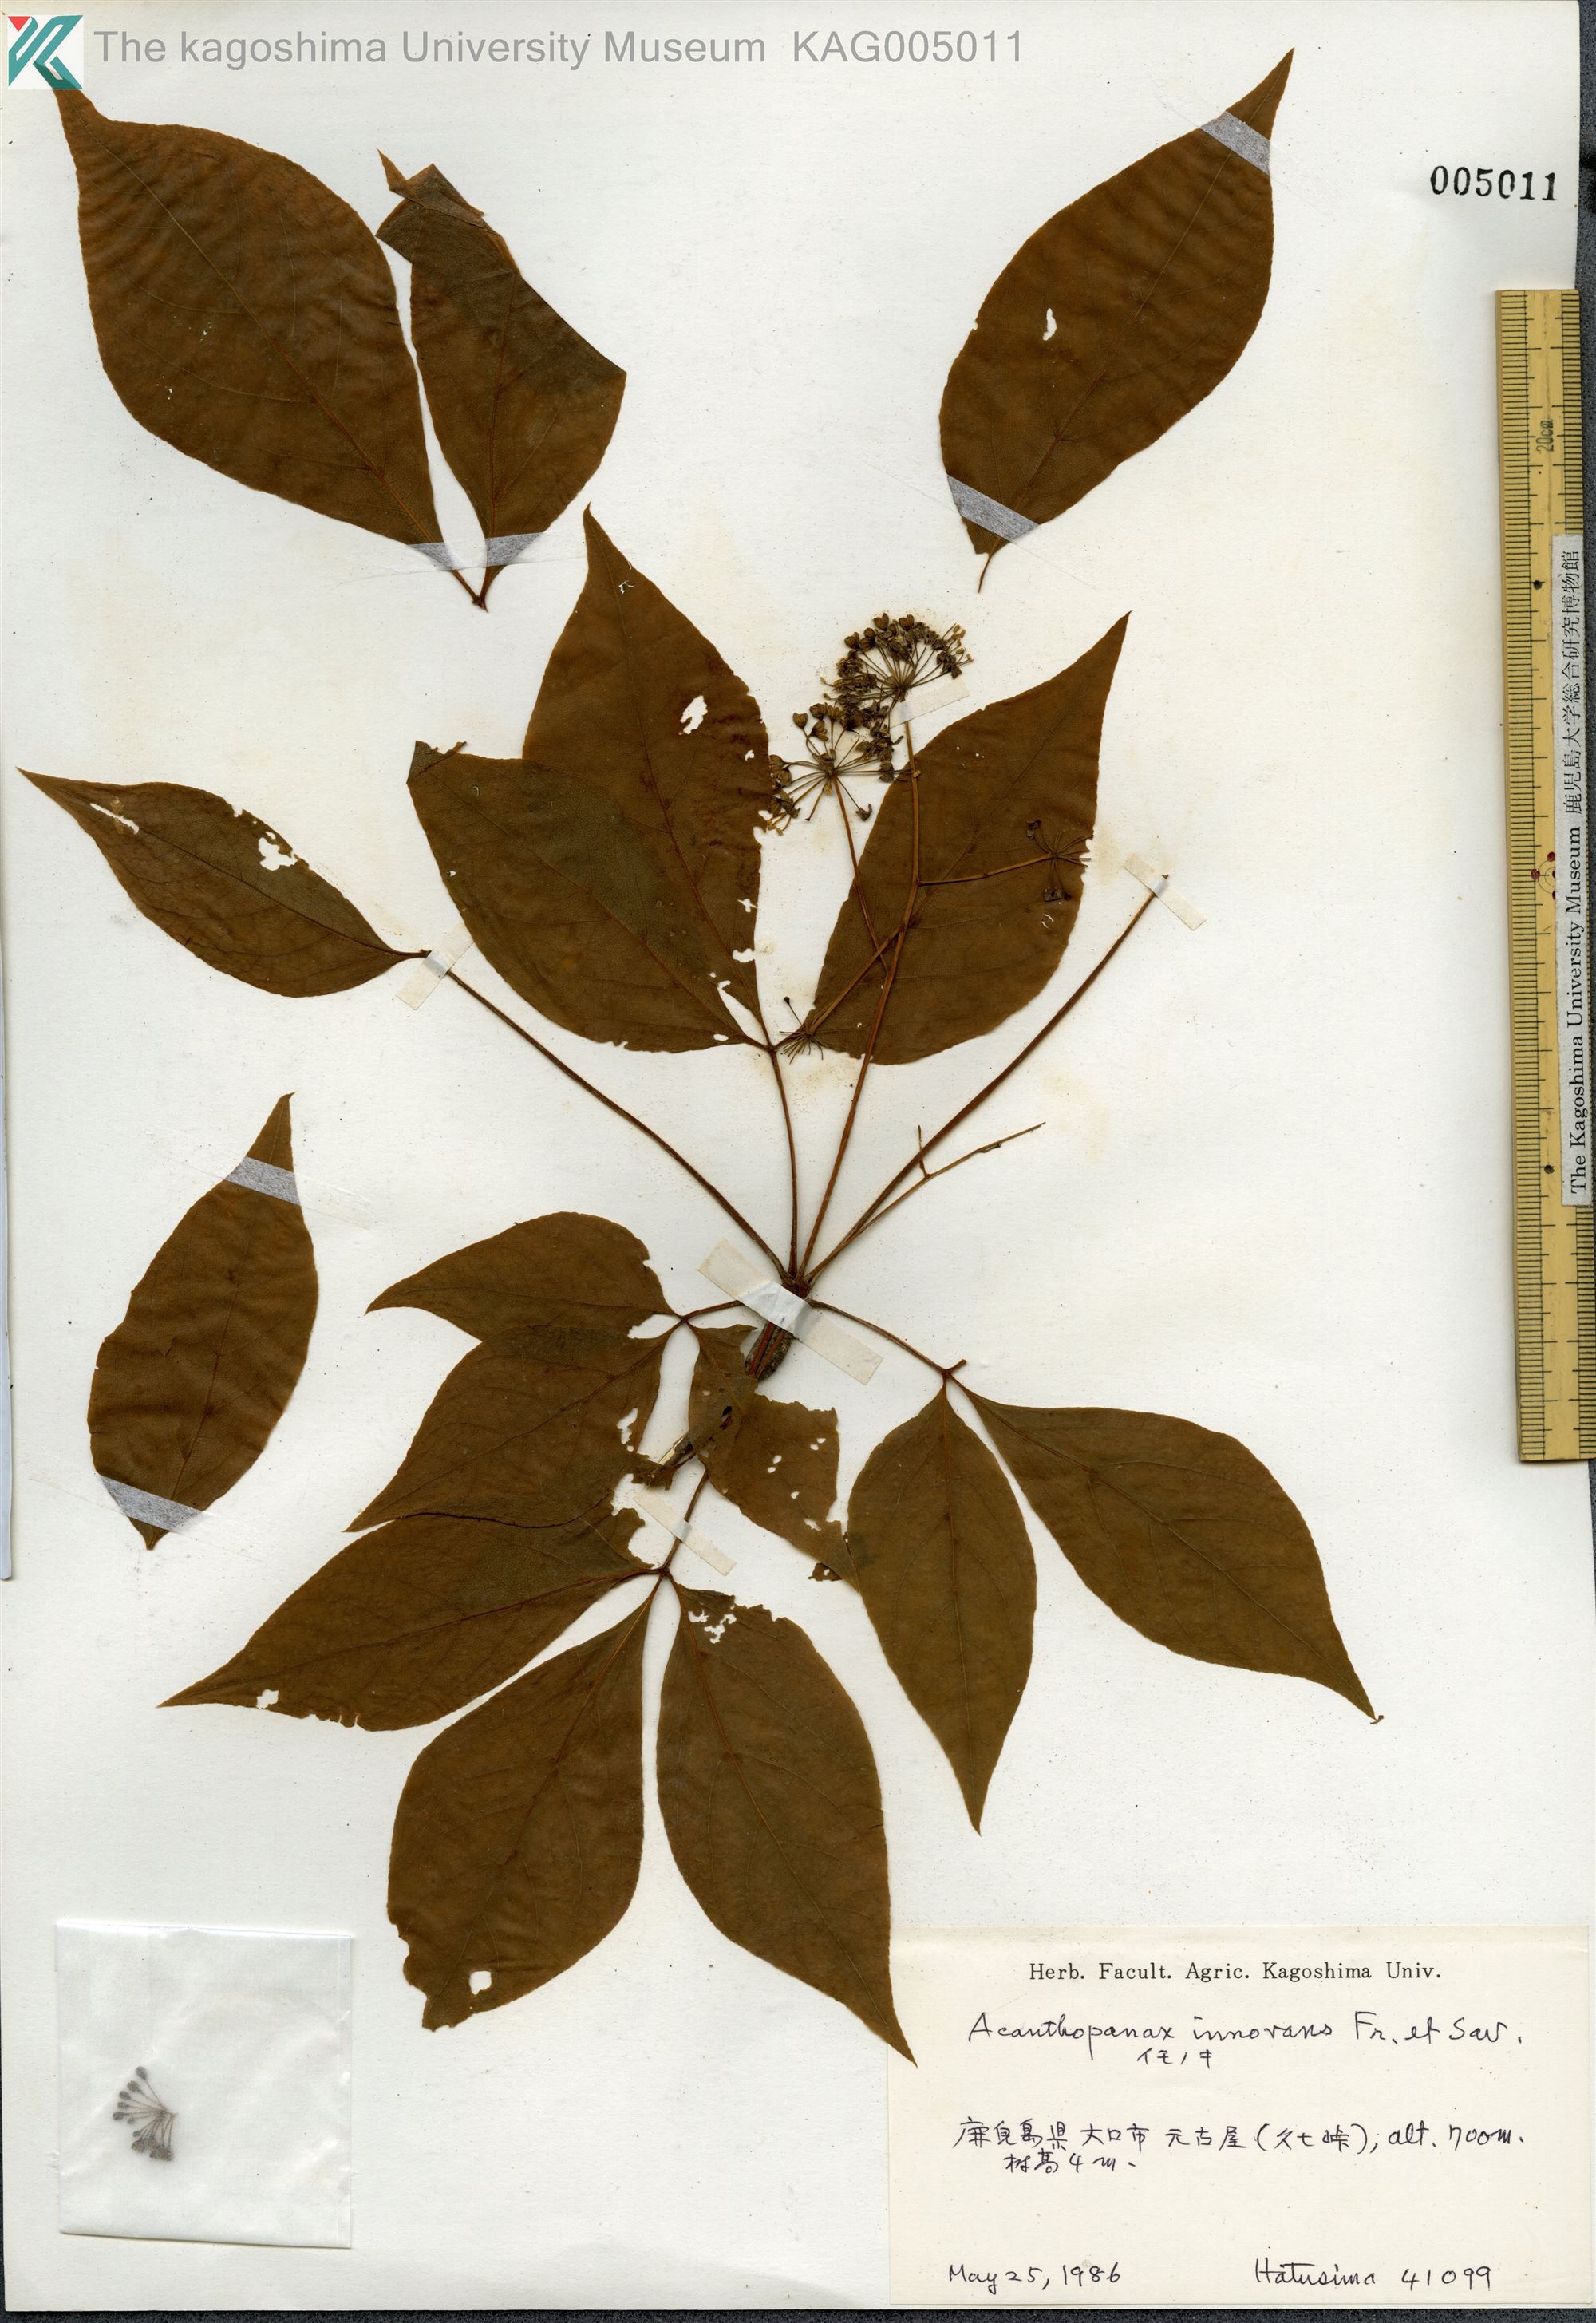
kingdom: Plantae
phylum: Tracheophyta
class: Magnoliopsida
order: Apiales
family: Araliaceae
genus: Gamblea
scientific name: Gamblea innovans
